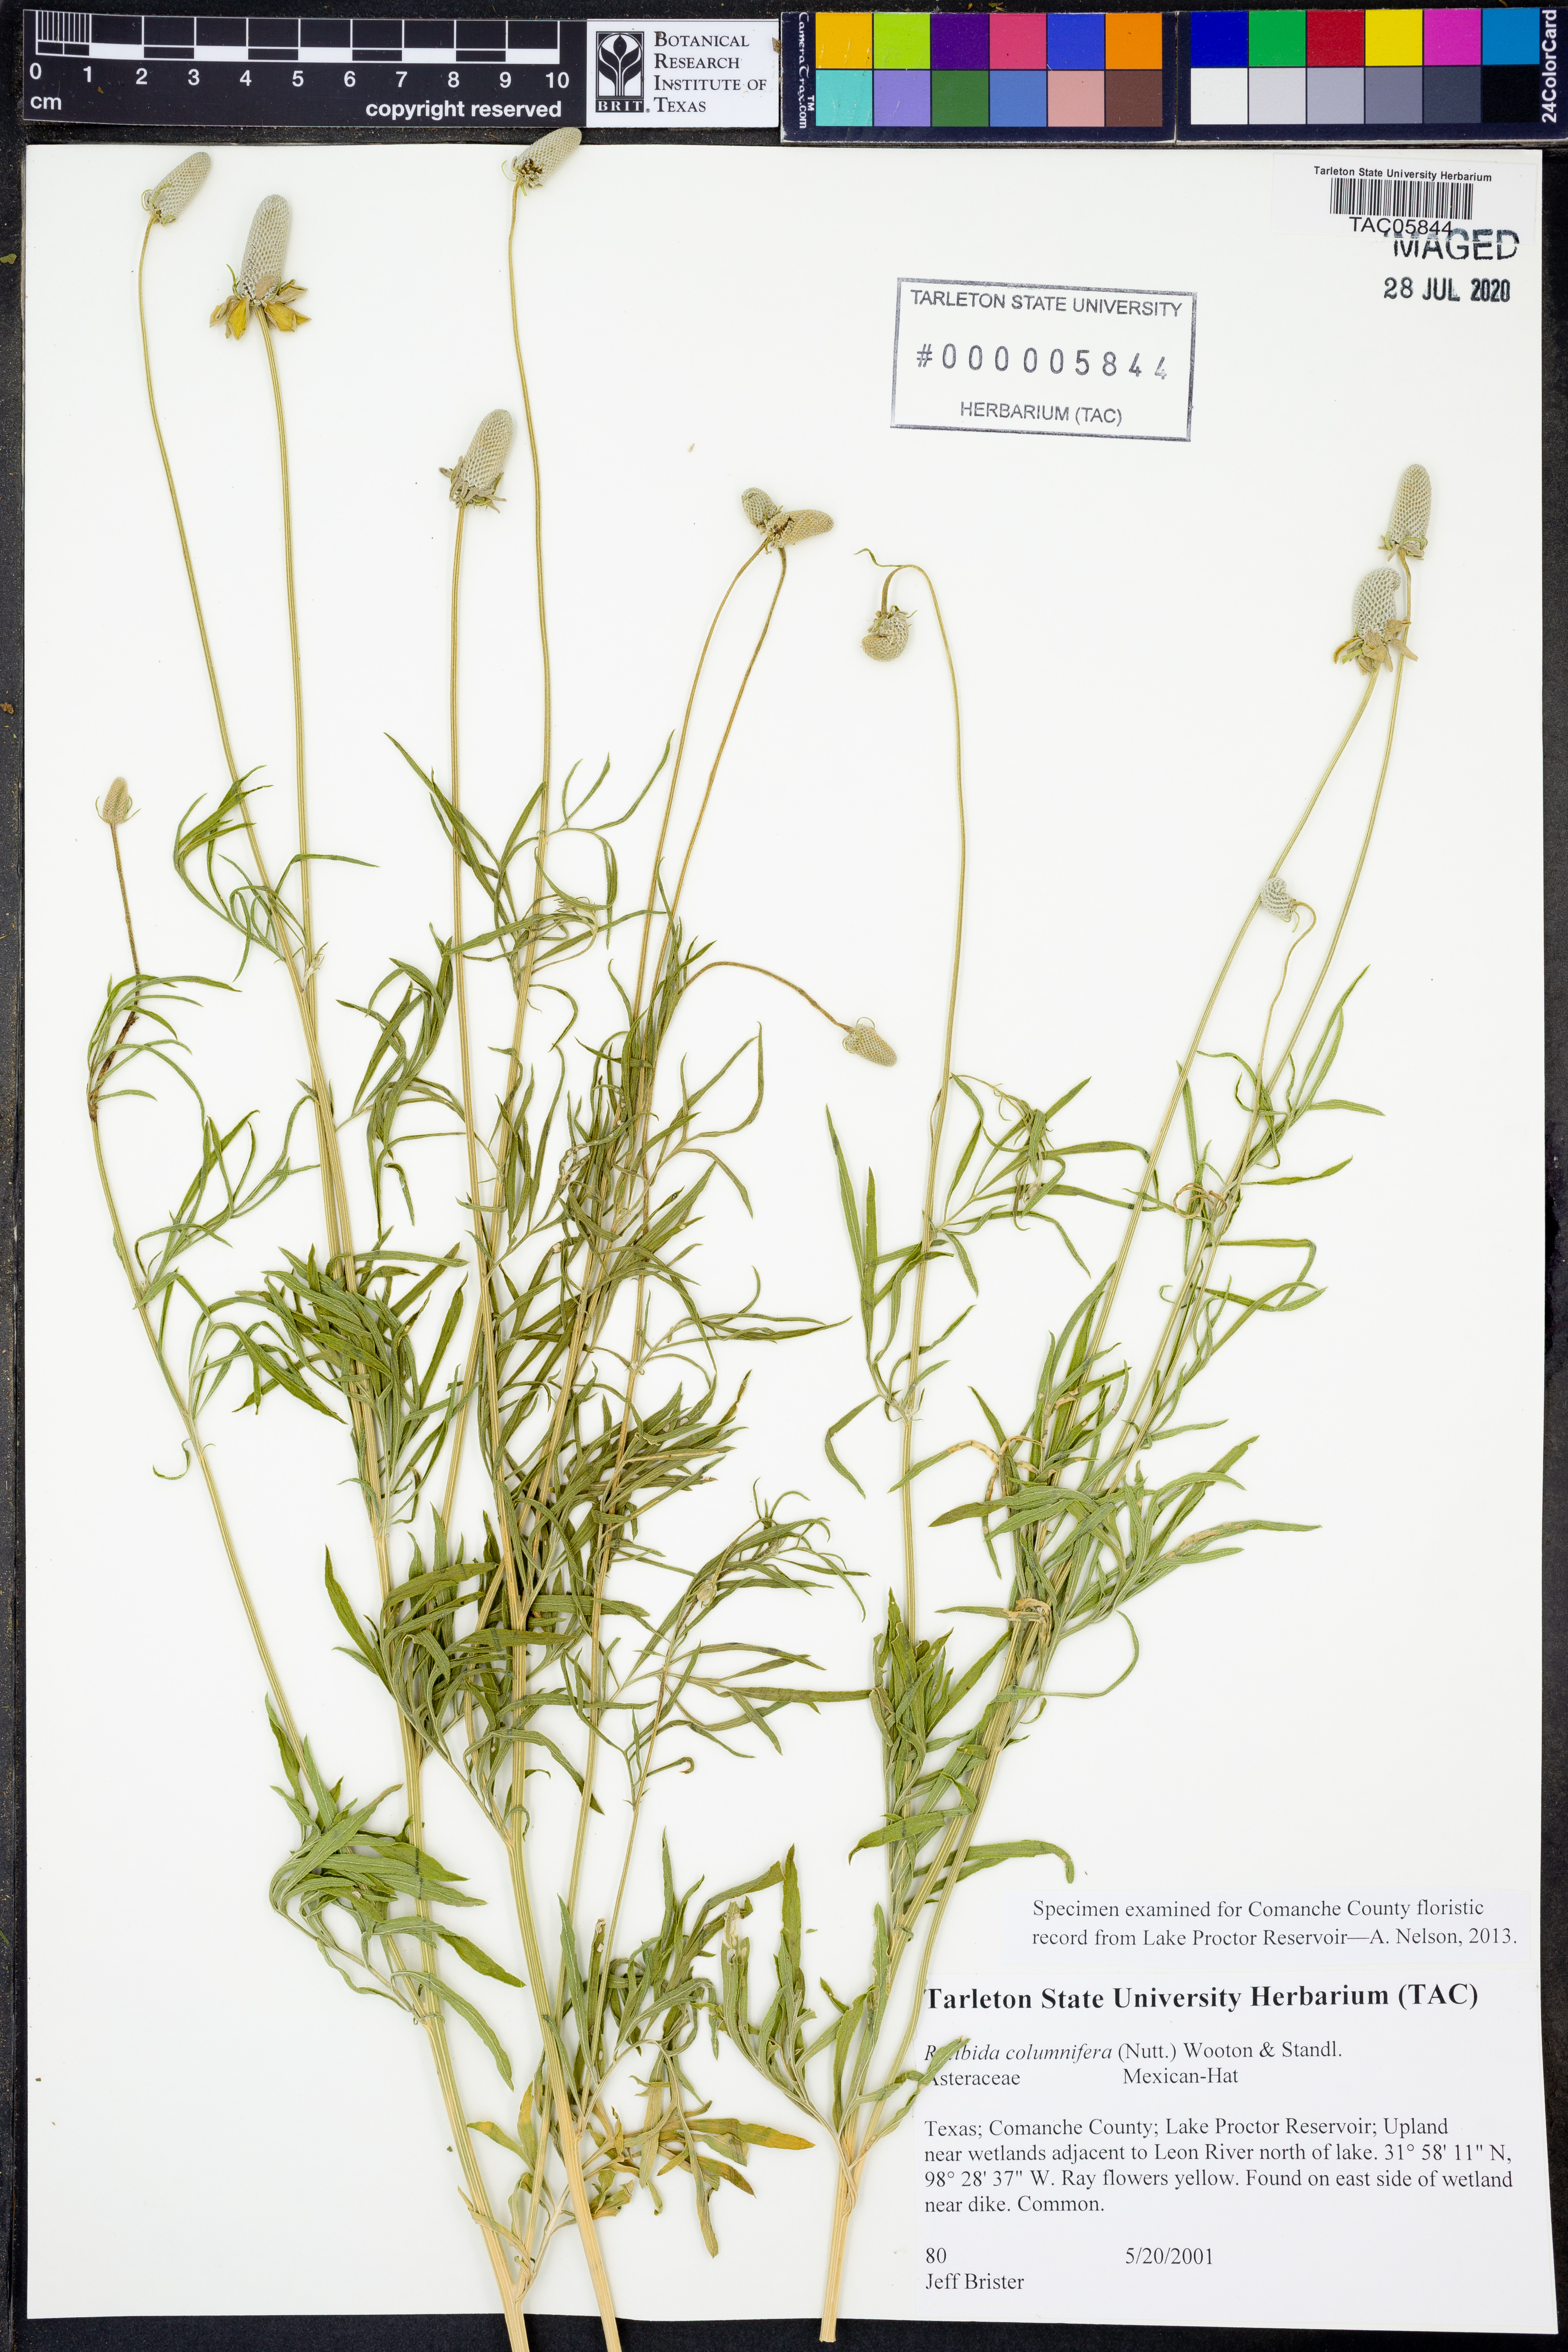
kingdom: Plantae
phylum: Tracheophyta
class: Magnoliopsida
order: Asterales
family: Asteraceae
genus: Ratibida
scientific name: Ratibida columnifera
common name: Prairie coneflower
